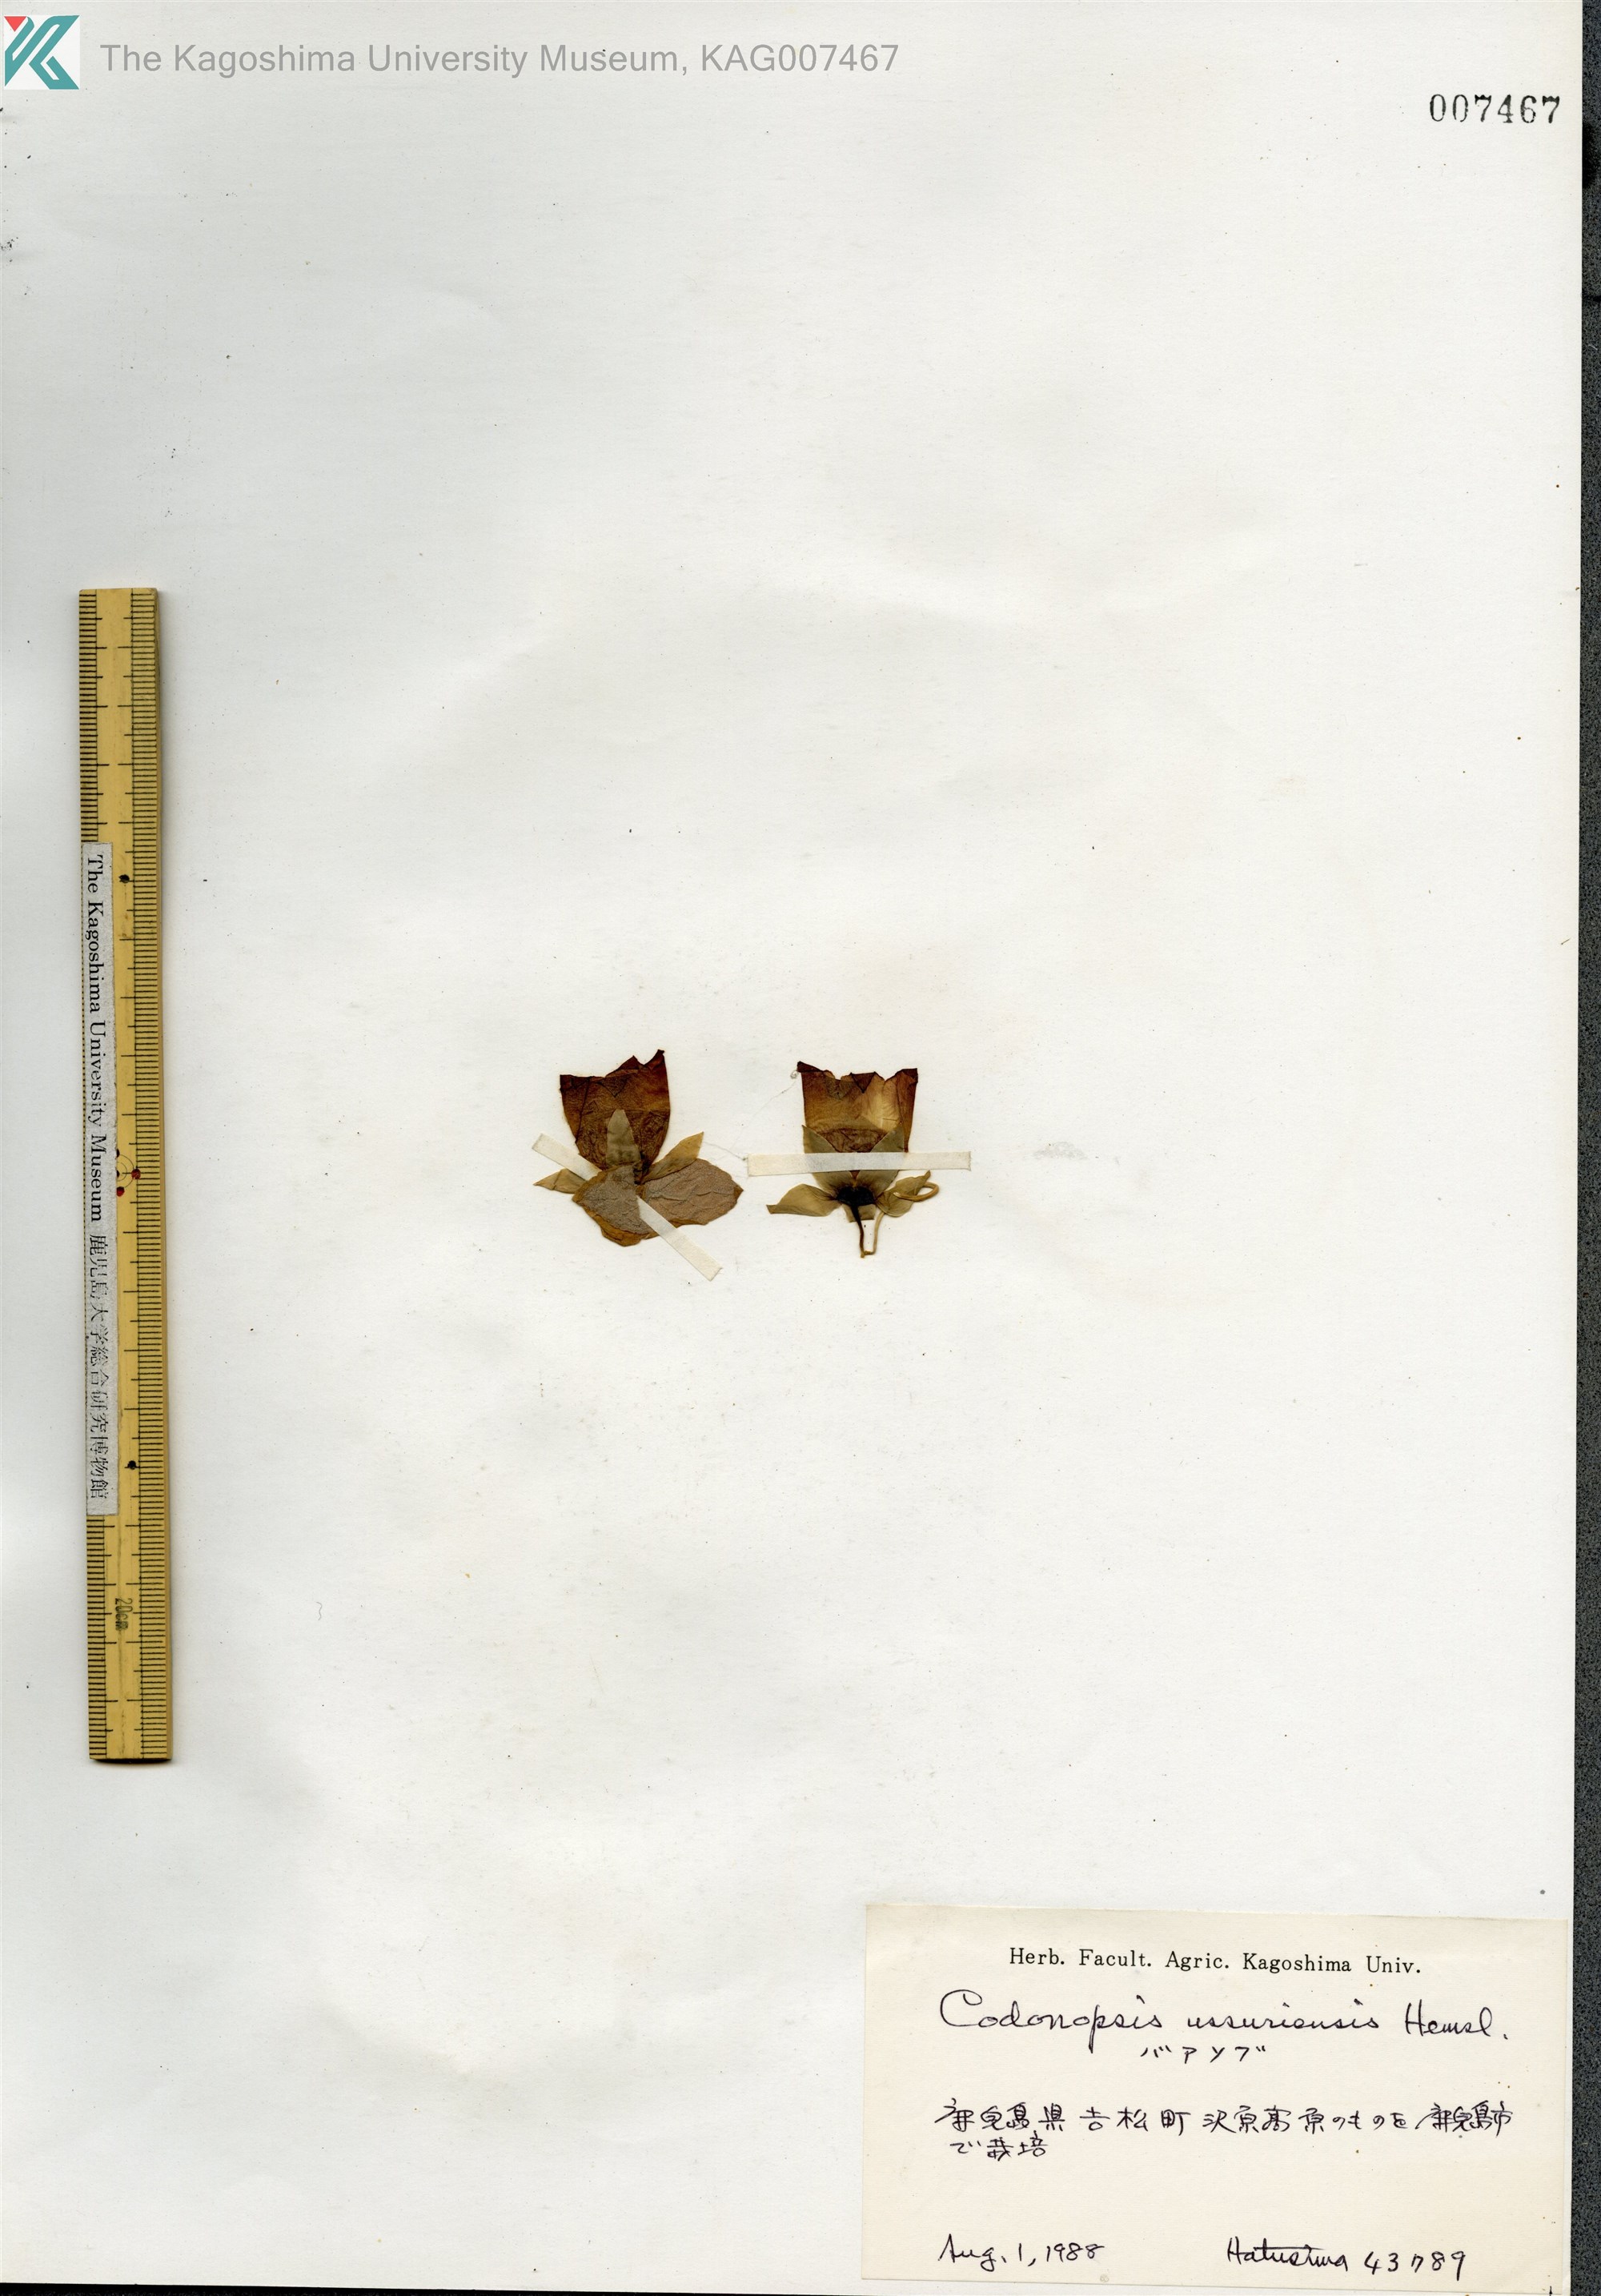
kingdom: Plantae
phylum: Tracheophyta
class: Magnoliopsida
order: Asterales
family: Campanulaceae
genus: Codonopsis
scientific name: Codonopsis ussuriensis
